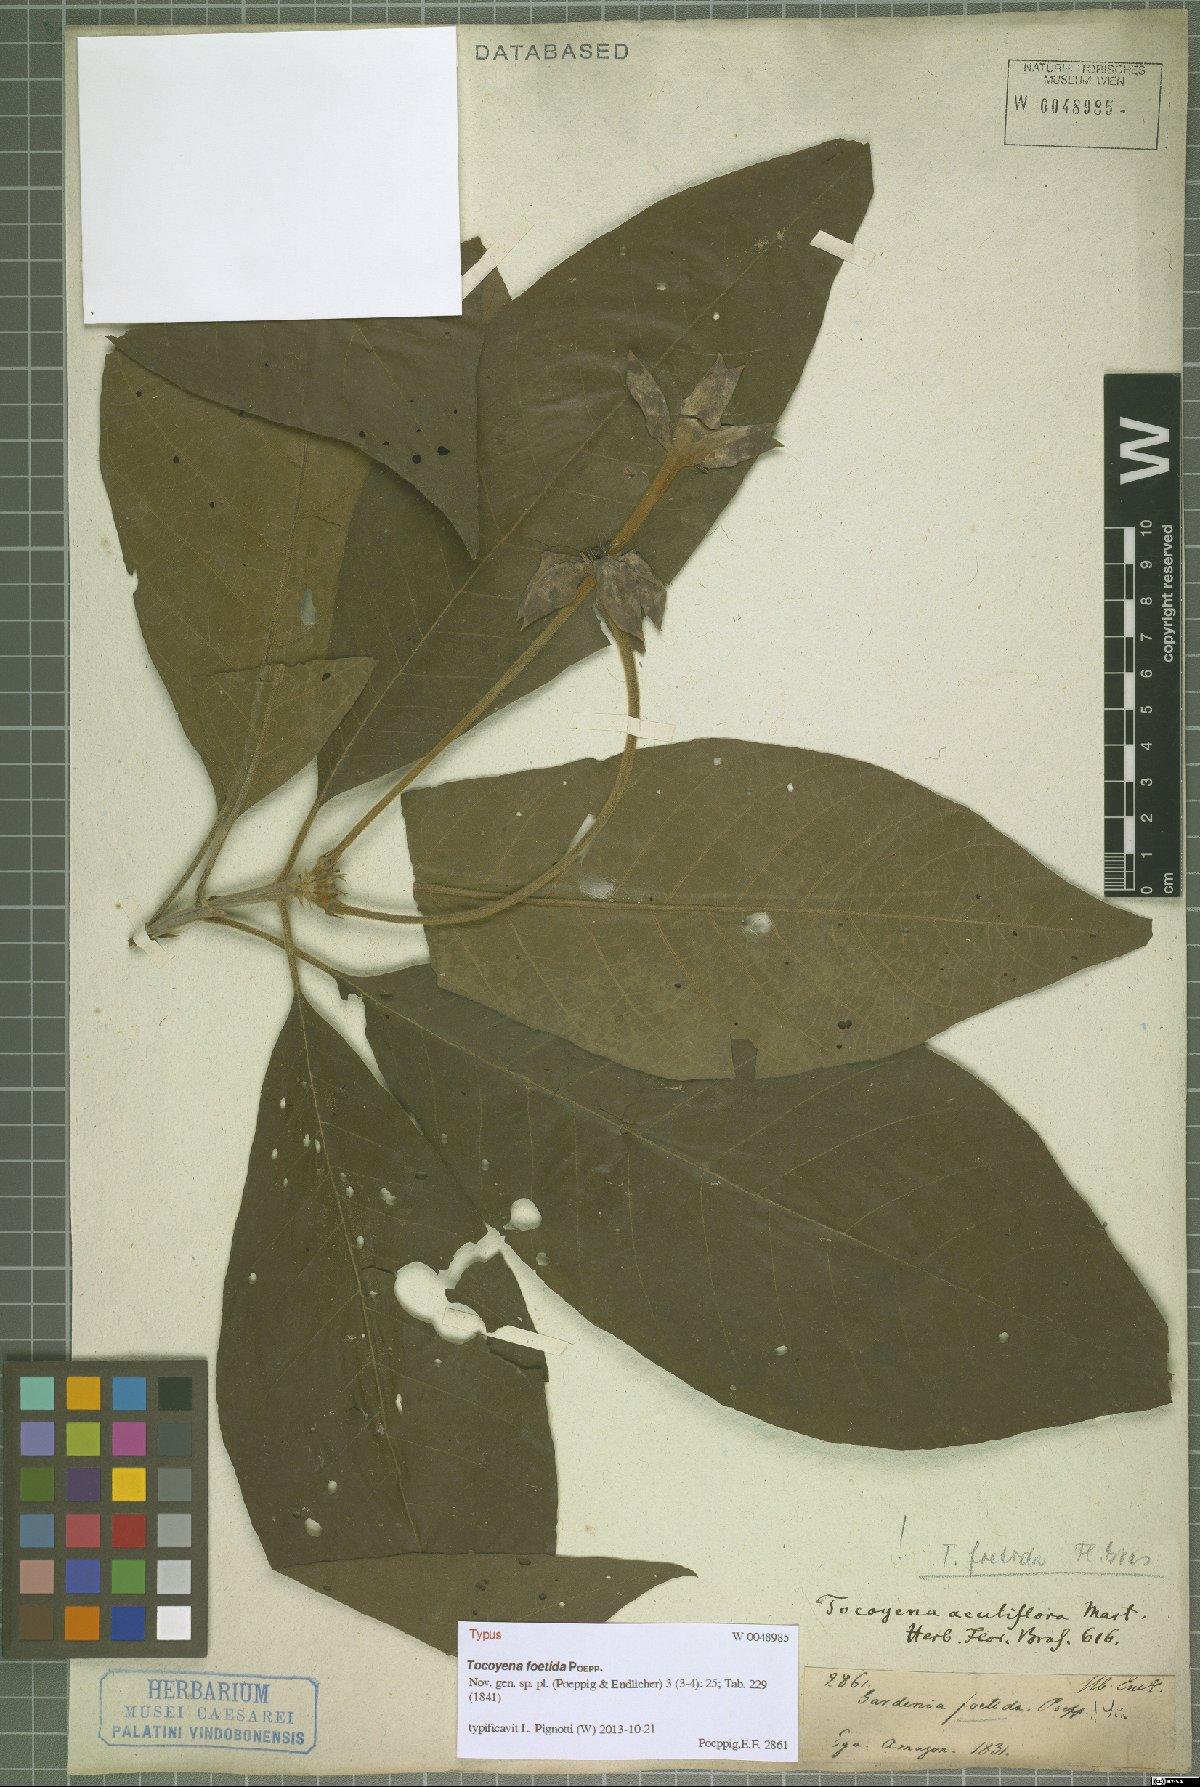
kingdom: Plantae
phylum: Tracheophyta
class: Magnoliopsida
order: Gentianales
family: Rubiaceae
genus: Tocoyena
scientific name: Tocoyena foetida
